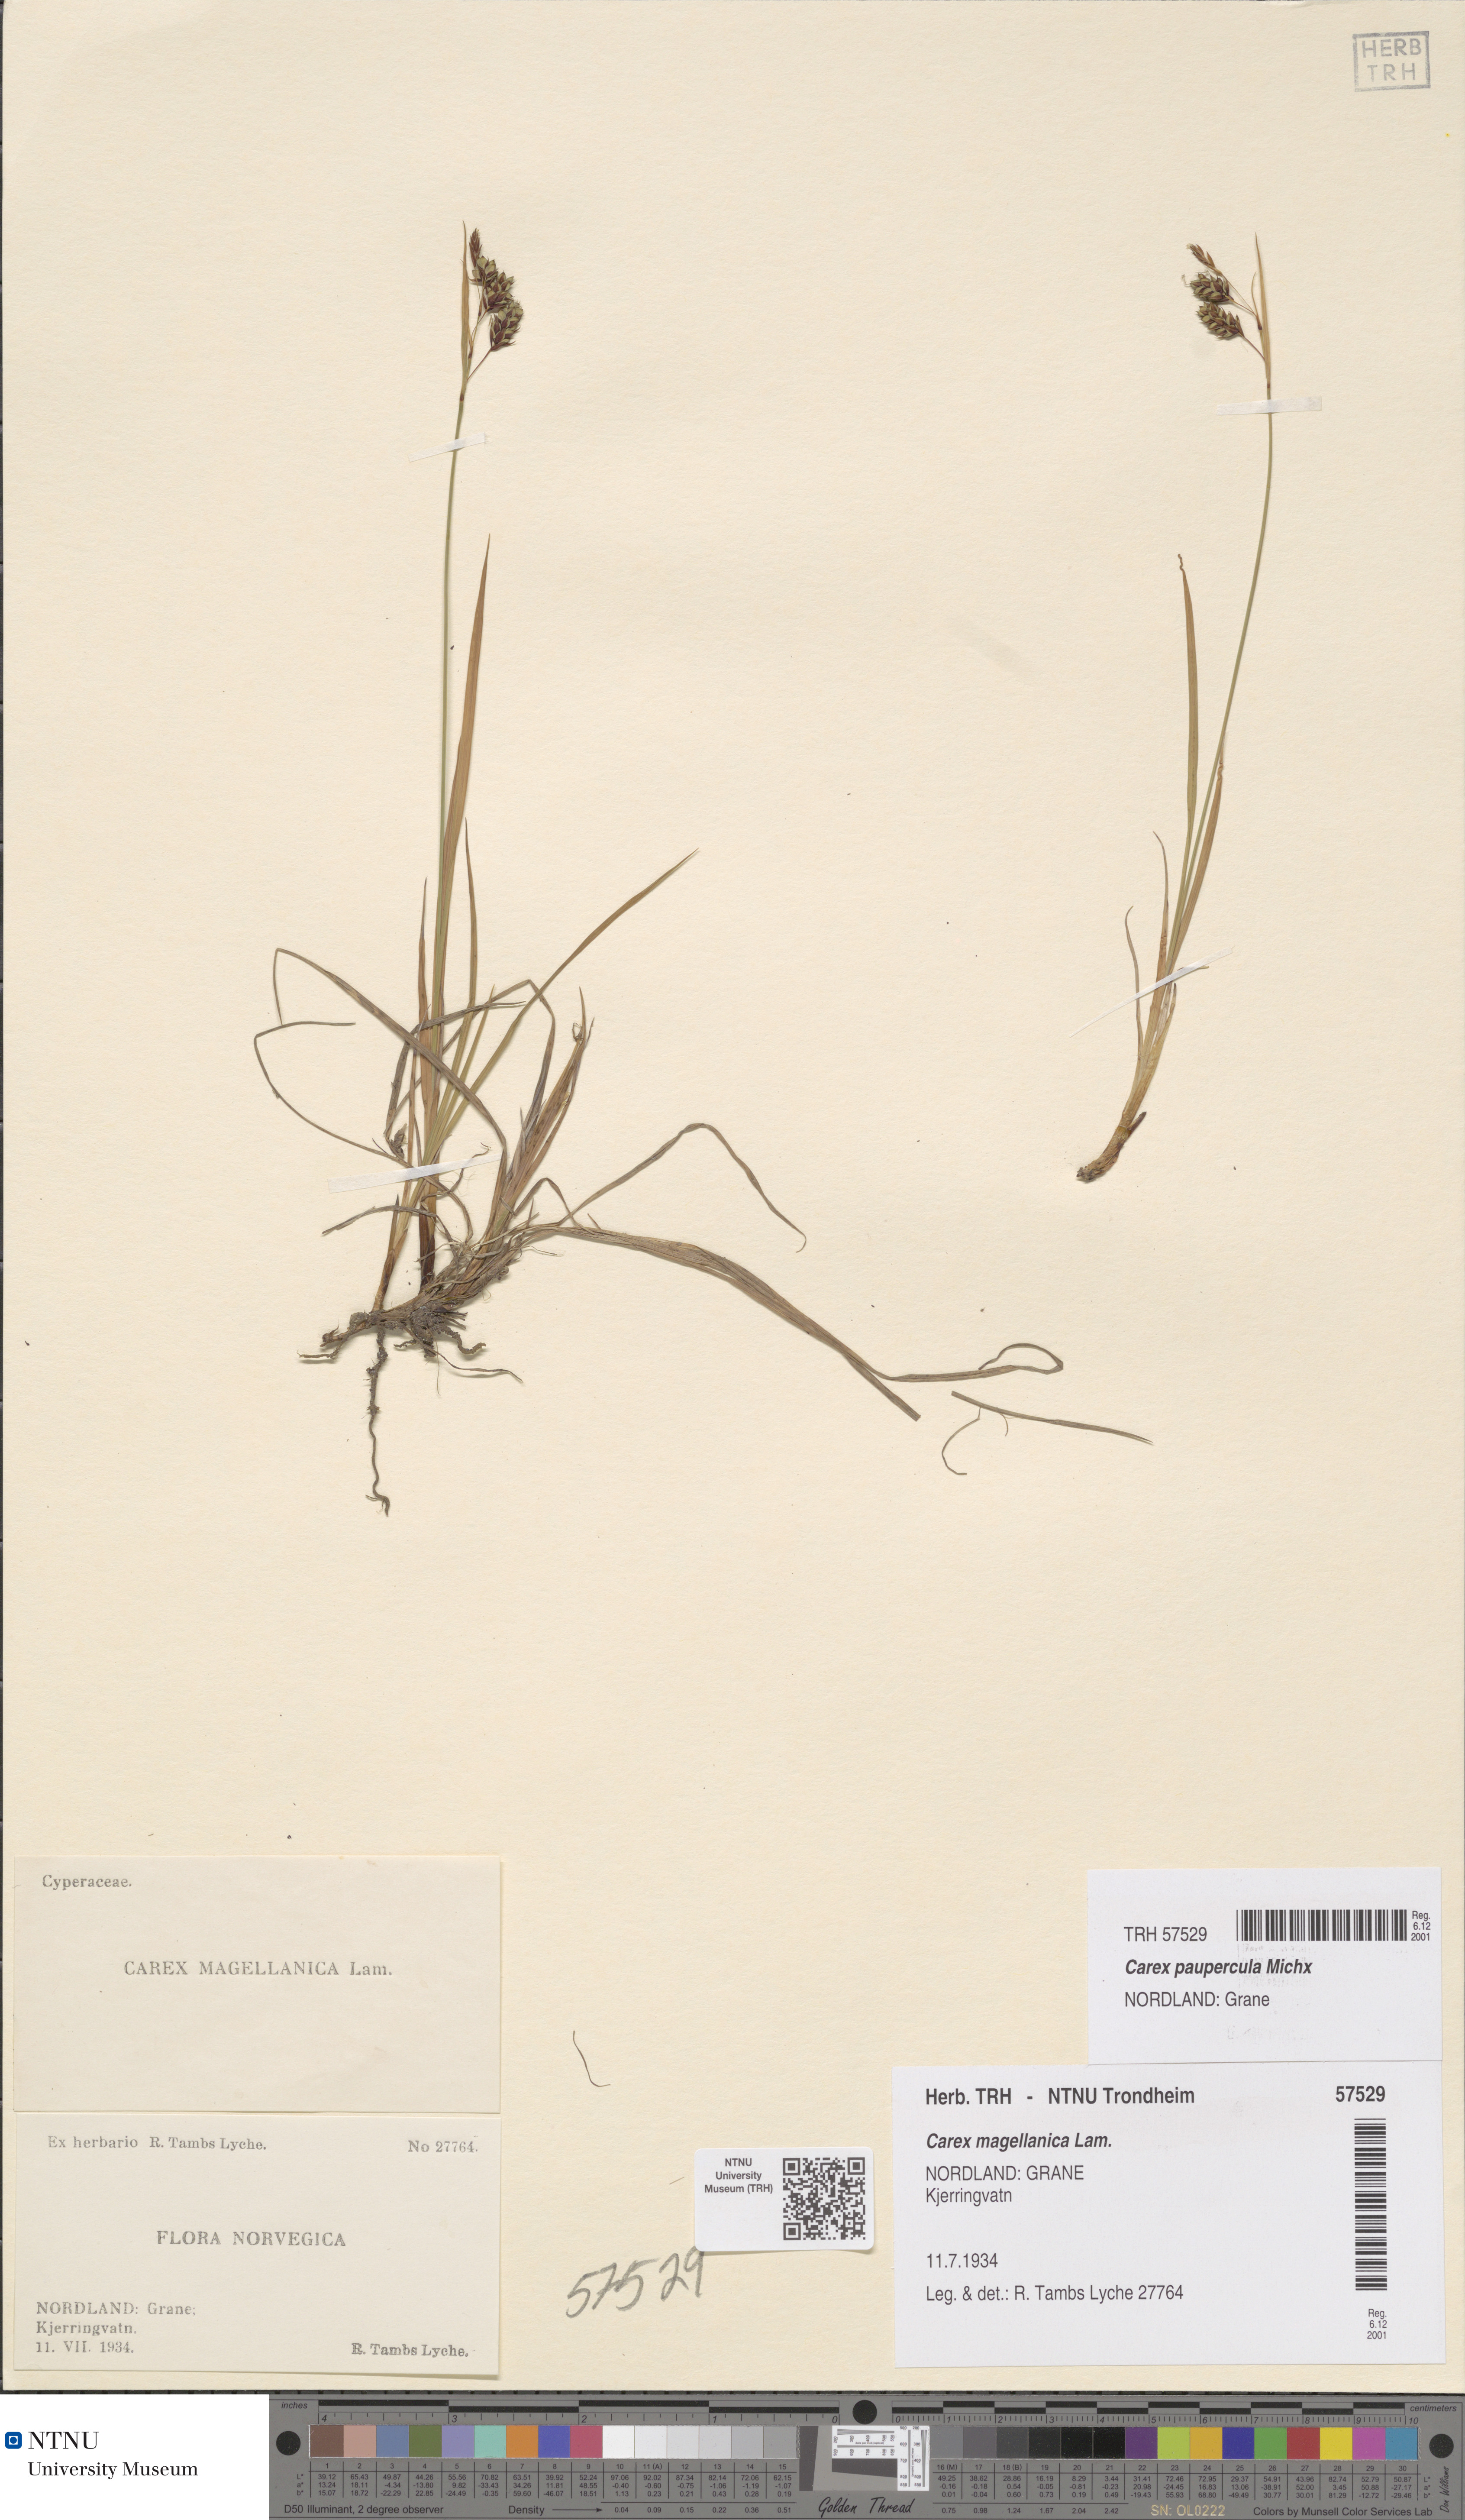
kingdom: Plantae
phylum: Tracheophyta
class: Liliopsida
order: Poales
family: Cyperaceae
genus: Carex
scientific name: Carex magellanica
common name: Bog sedge
